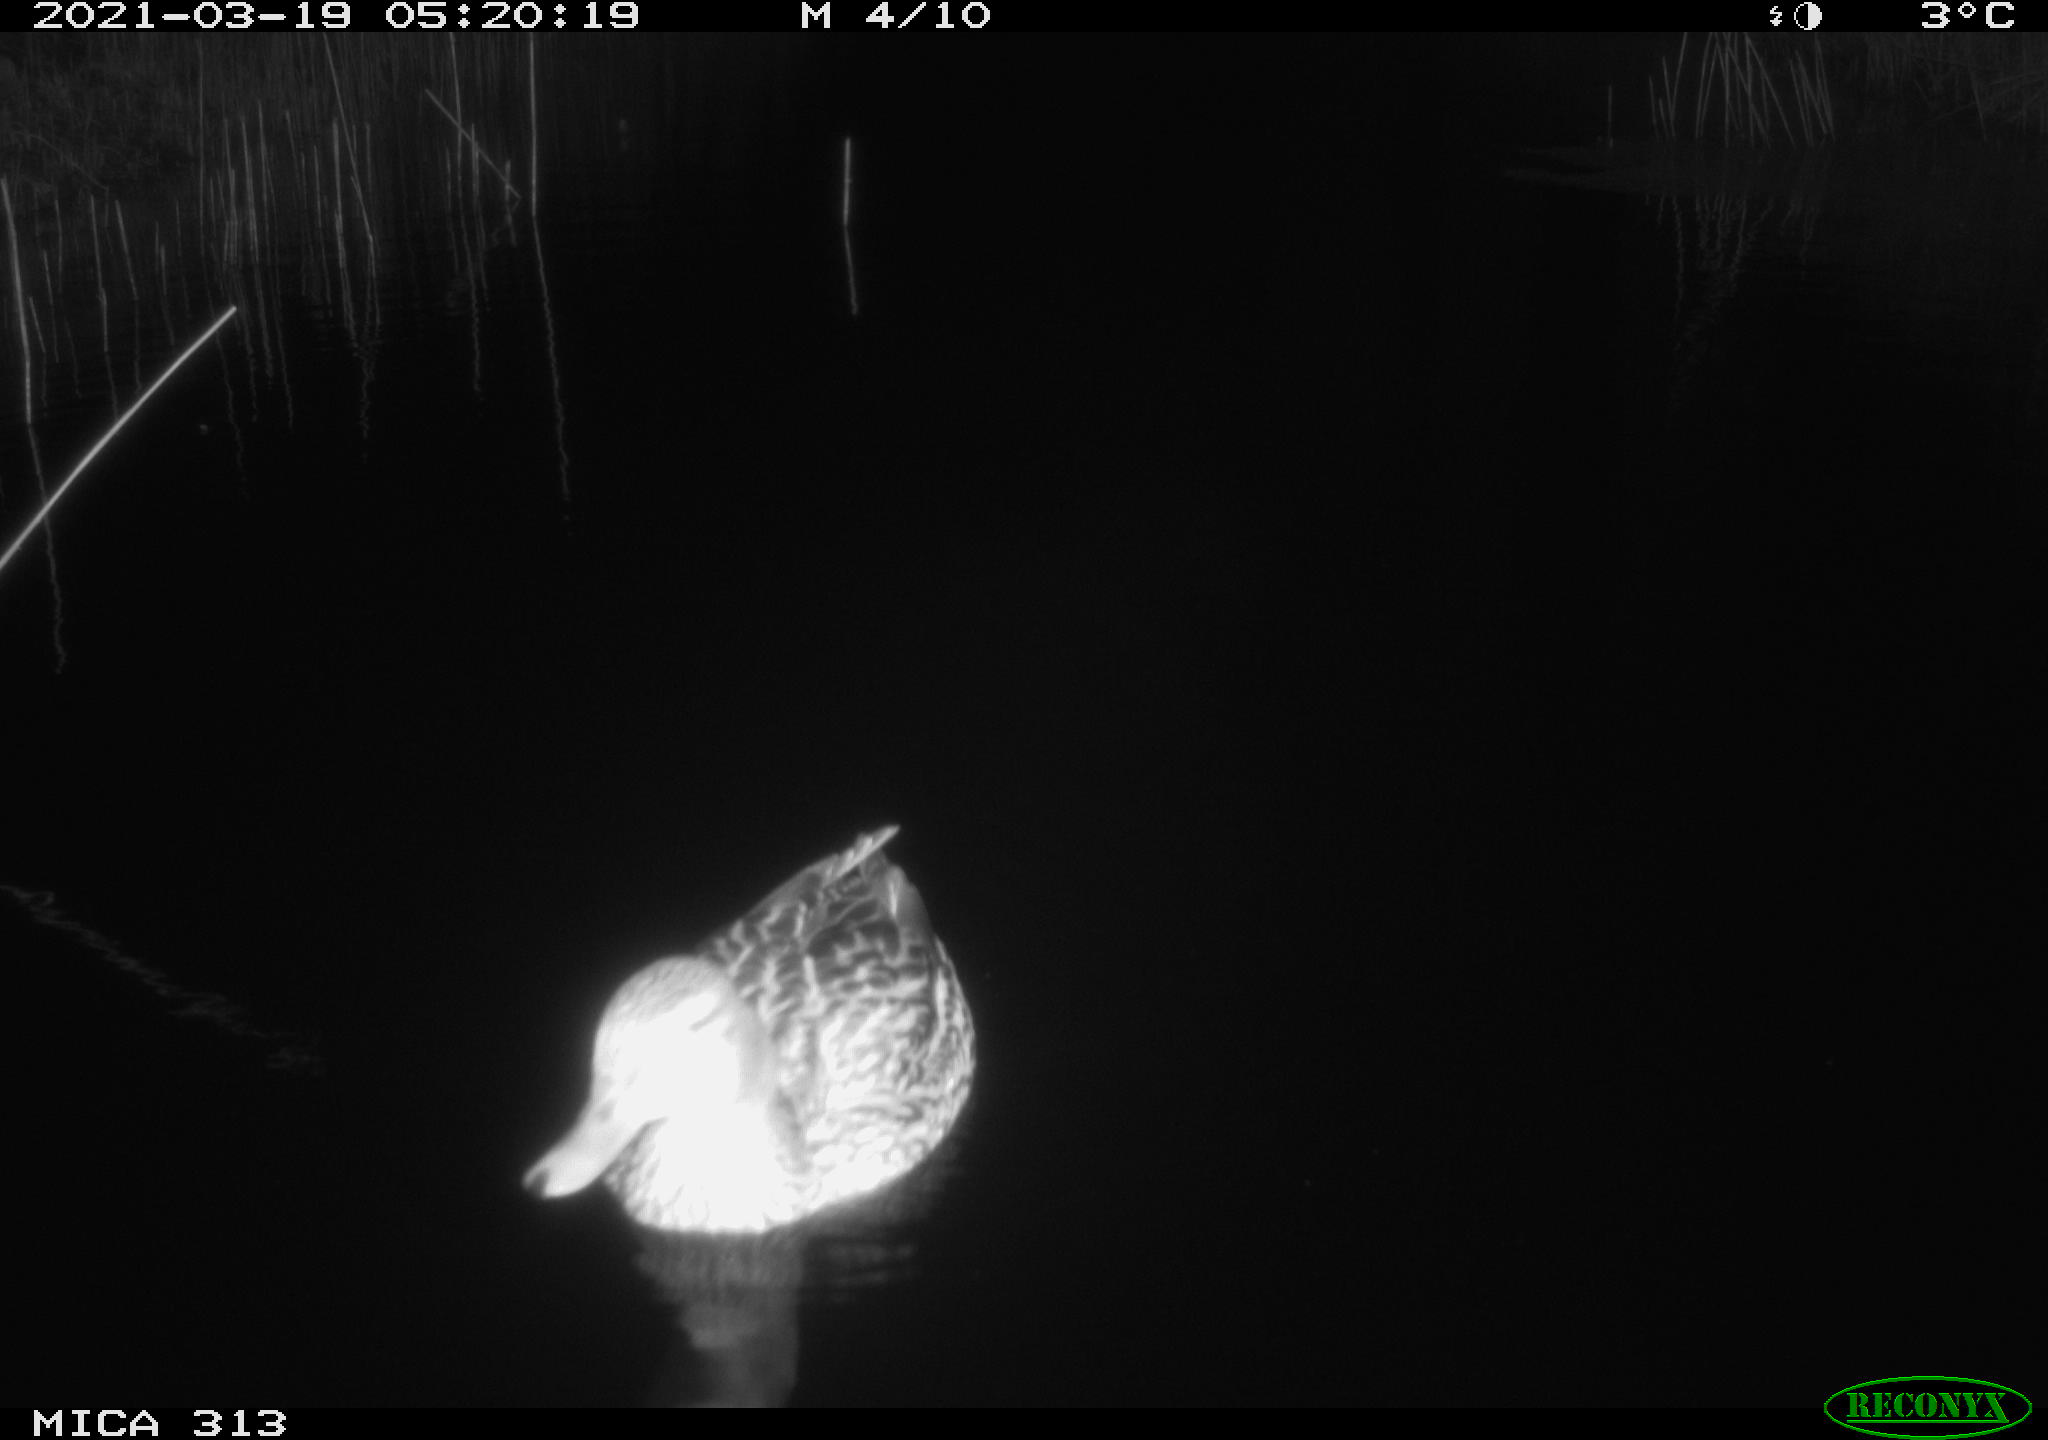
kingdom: Animalia
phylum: Chordata
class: Aves
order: Anseriformes
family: Anatidae
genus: Anas
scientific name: Anas platyrhynchos
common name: Mallard
